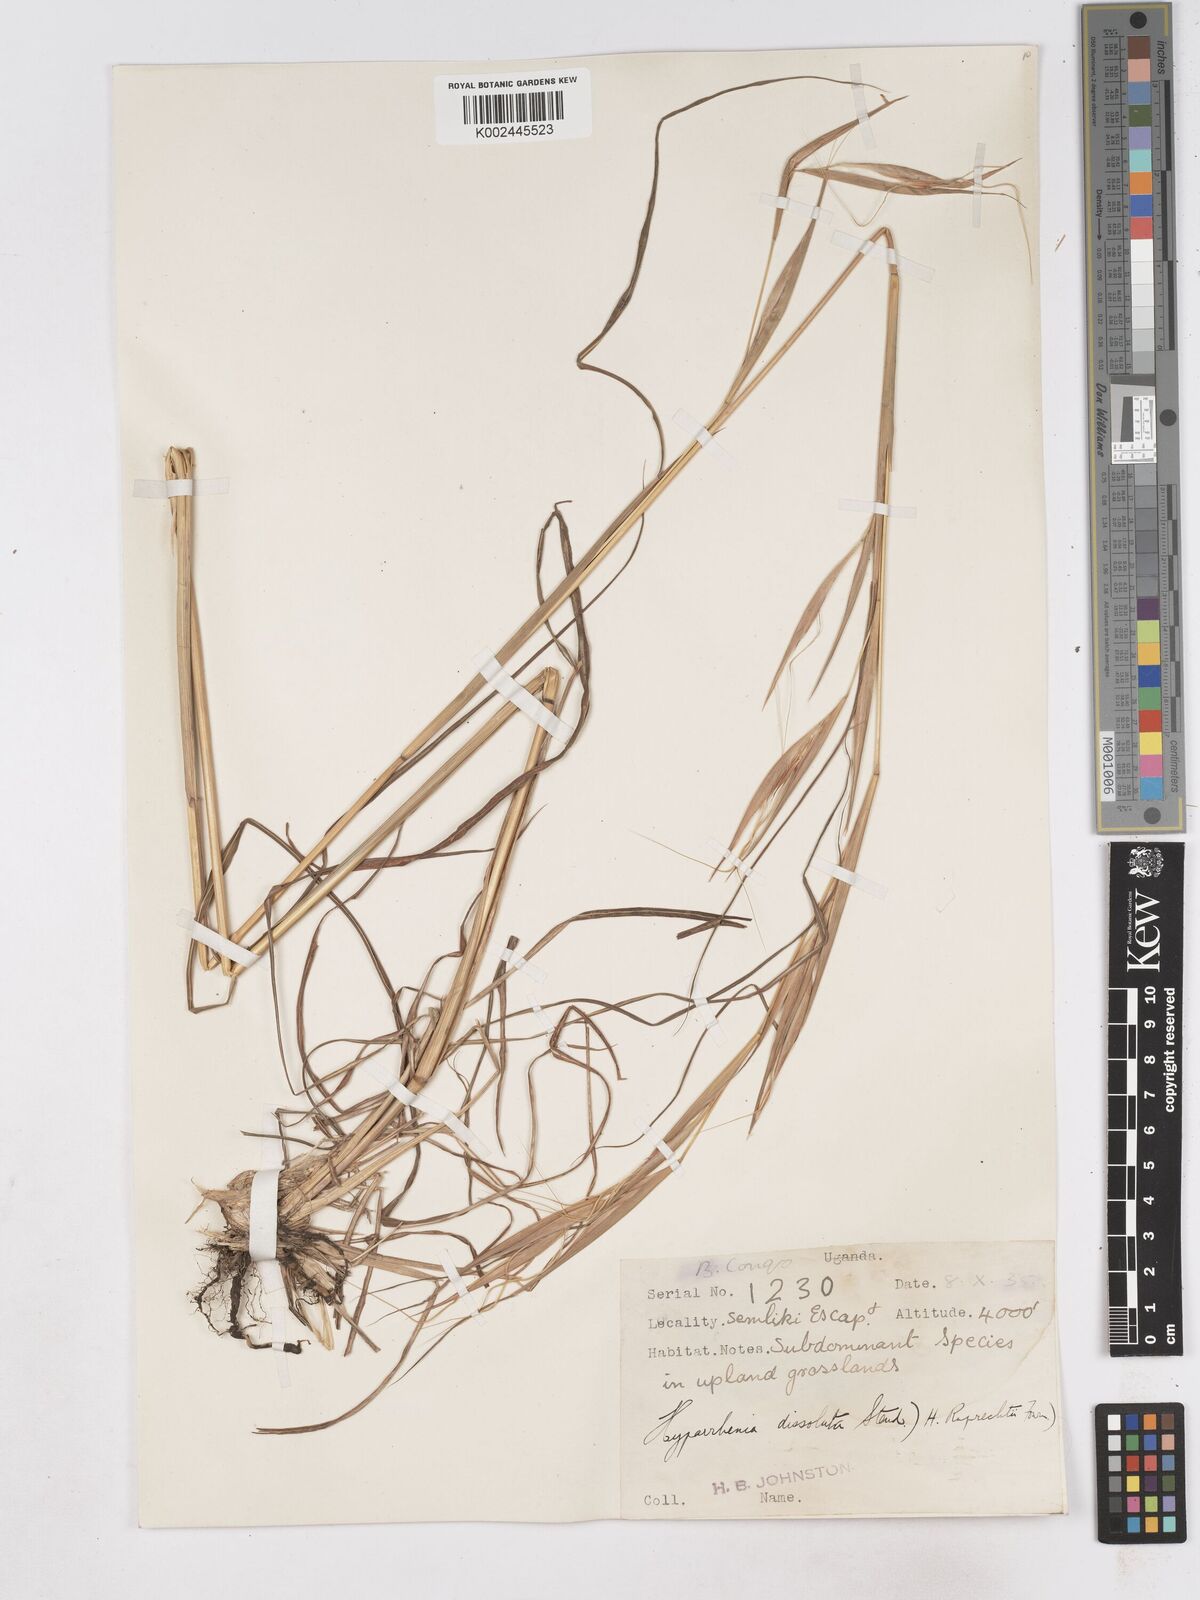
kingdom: Plantae
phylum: Tracheophyta
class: Liliopsida
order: Poales
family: Poaceae
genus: Hyperthelia
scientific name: Hyperthelia dissoluta
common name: Yellow thatching grass
